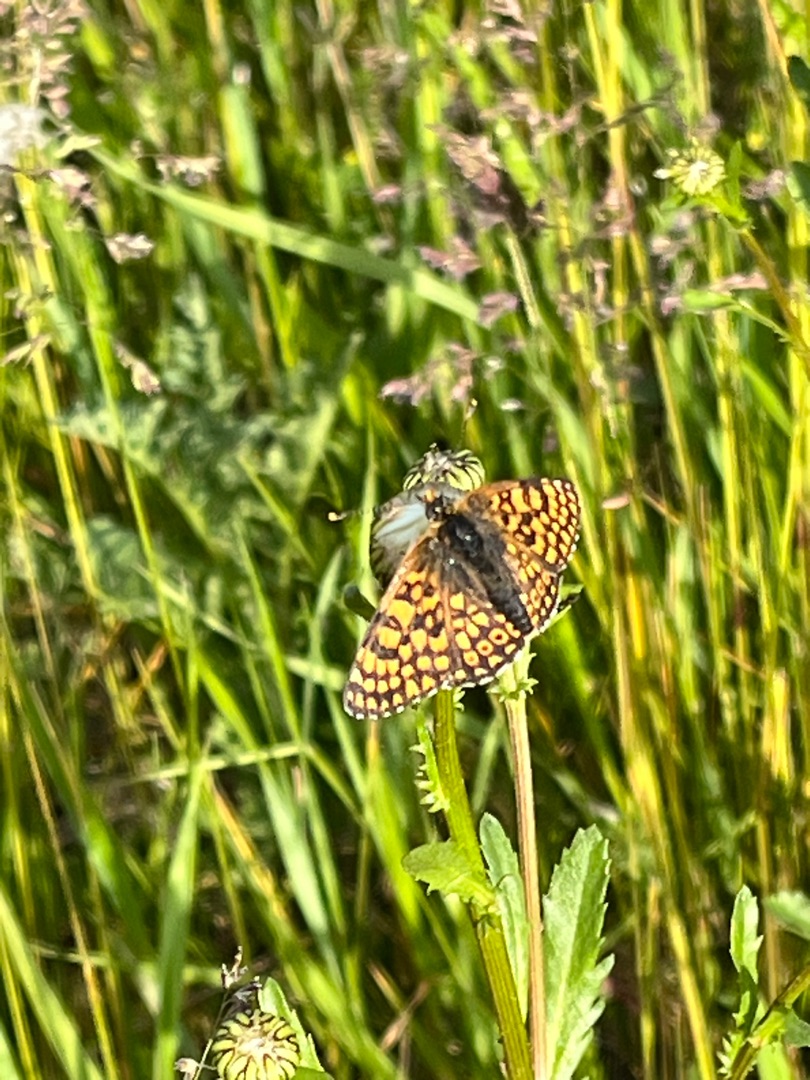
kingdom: Animalia
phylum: Arthropoda
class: Insecta
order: Lepidoptera
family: Nymphalidae
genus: Melitaea
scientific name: Melitaea cinxia
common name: Okkergul pletvinge
